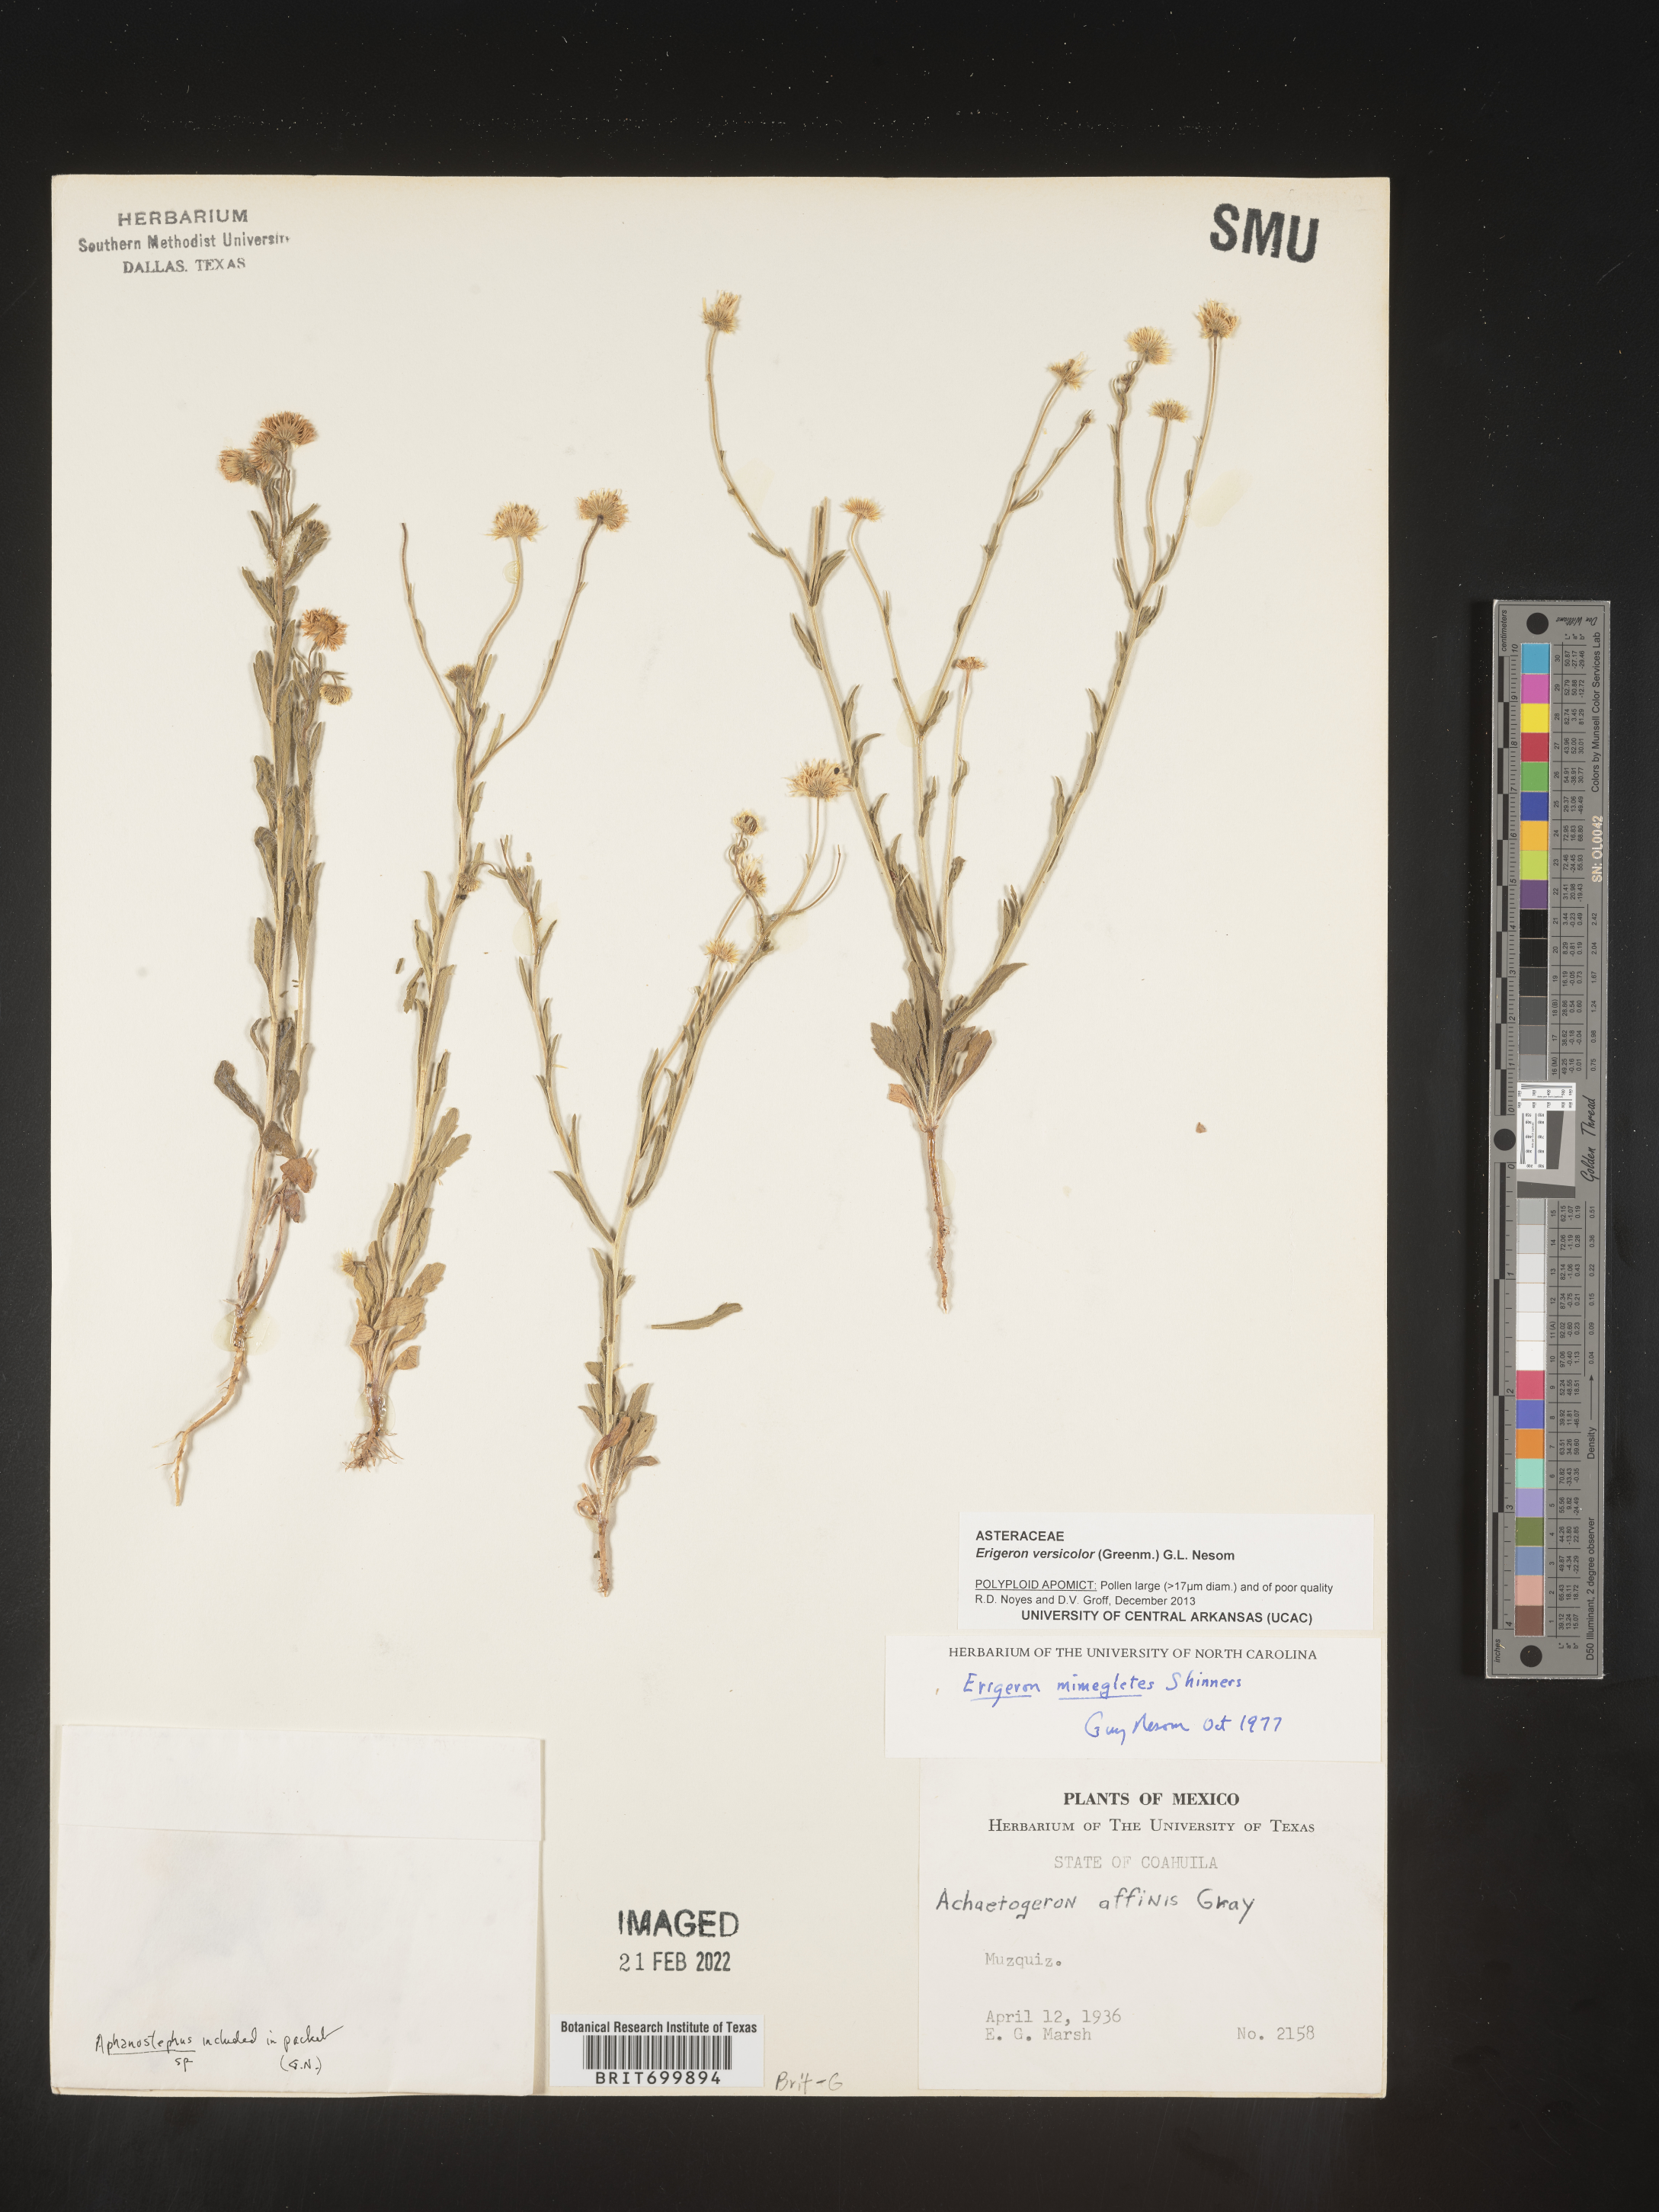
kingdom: Plantae
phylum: Tracheophyta
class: Magnoliopsida
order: Asterales
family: Asteraceae
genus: Erigeron
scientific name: Erigeron versicolor
